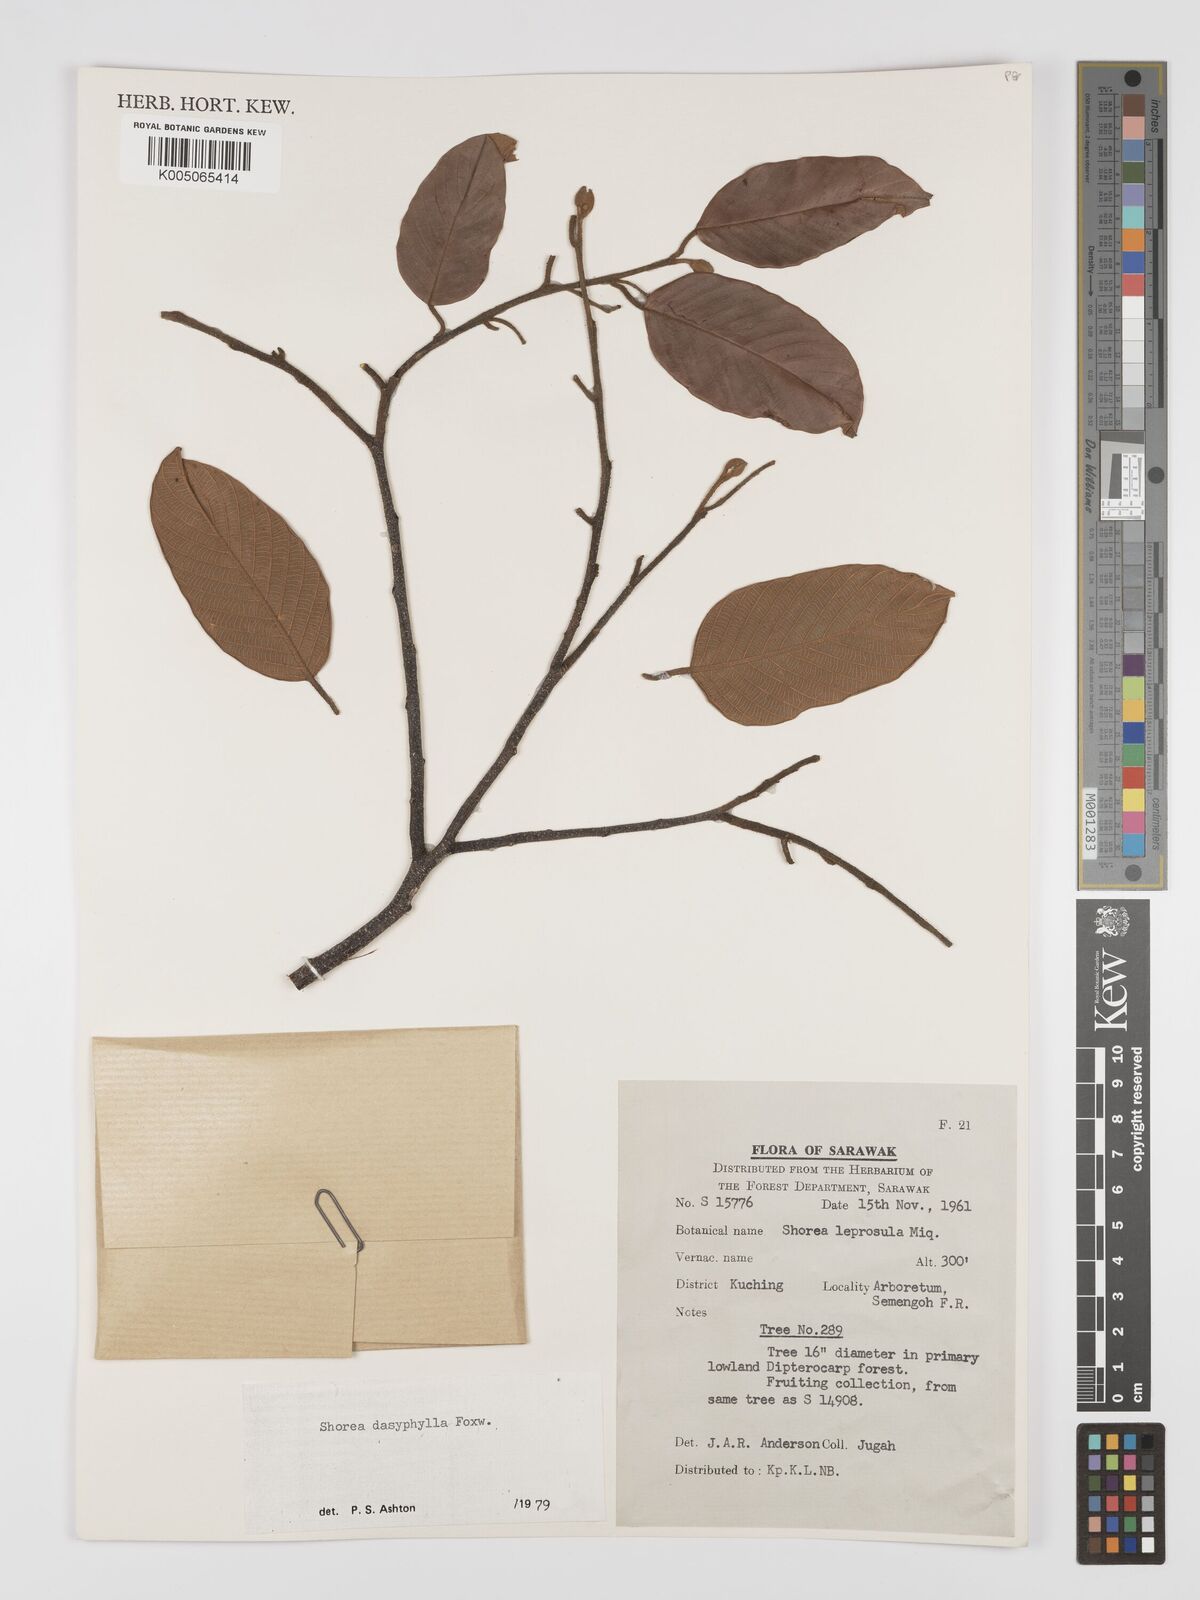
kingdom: Plantae
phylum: Tracheophyta
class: Magnoliopsida
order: Malvales
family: Dipterocarpaceae
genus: Shorea
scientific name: Shorea dasyphylla
